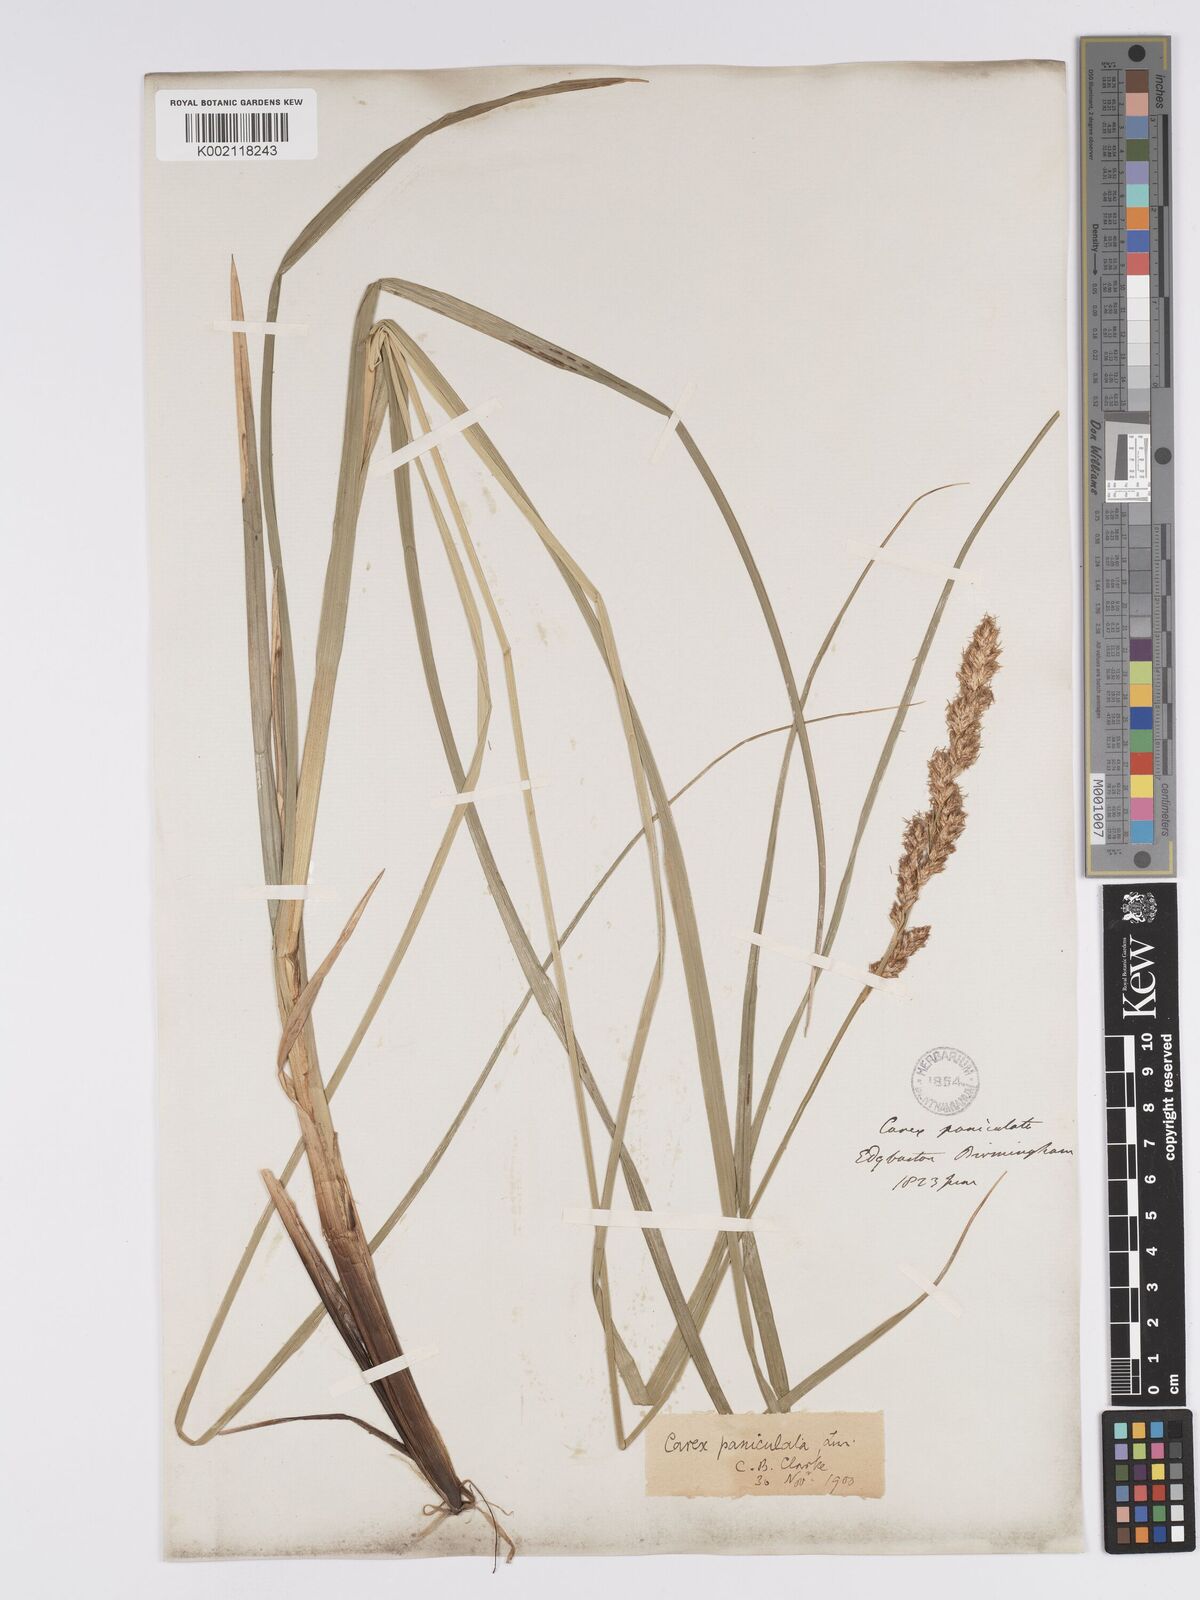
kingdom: Plantae
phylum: Tracheophyta
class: Liliopsida
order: Poales
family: Cyperaceae
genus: Carex
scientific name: Carex paniculata
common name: Greater tussock-sedge
